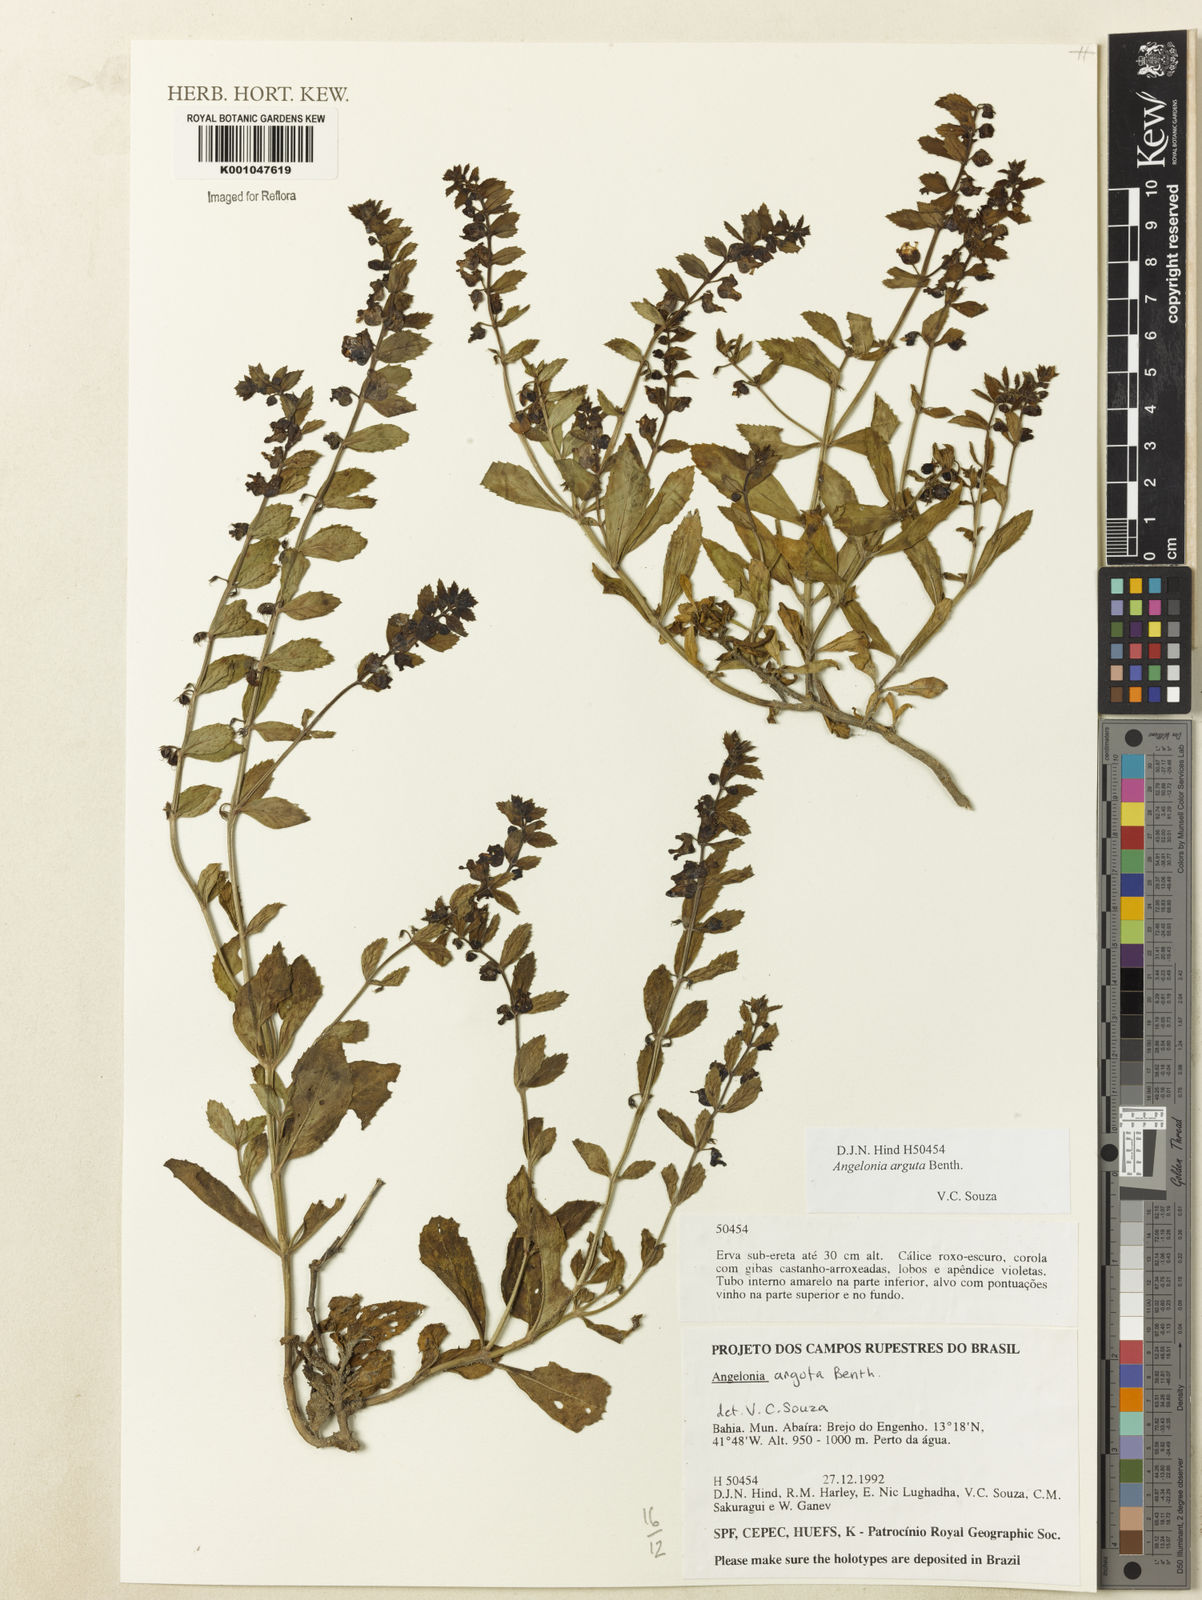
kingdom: Plantae
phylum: Tracheophyta
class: Magnoliopsida
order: Lamiales
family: Plantaginaceae
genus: Angelonia
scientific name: Angelonia arguta
